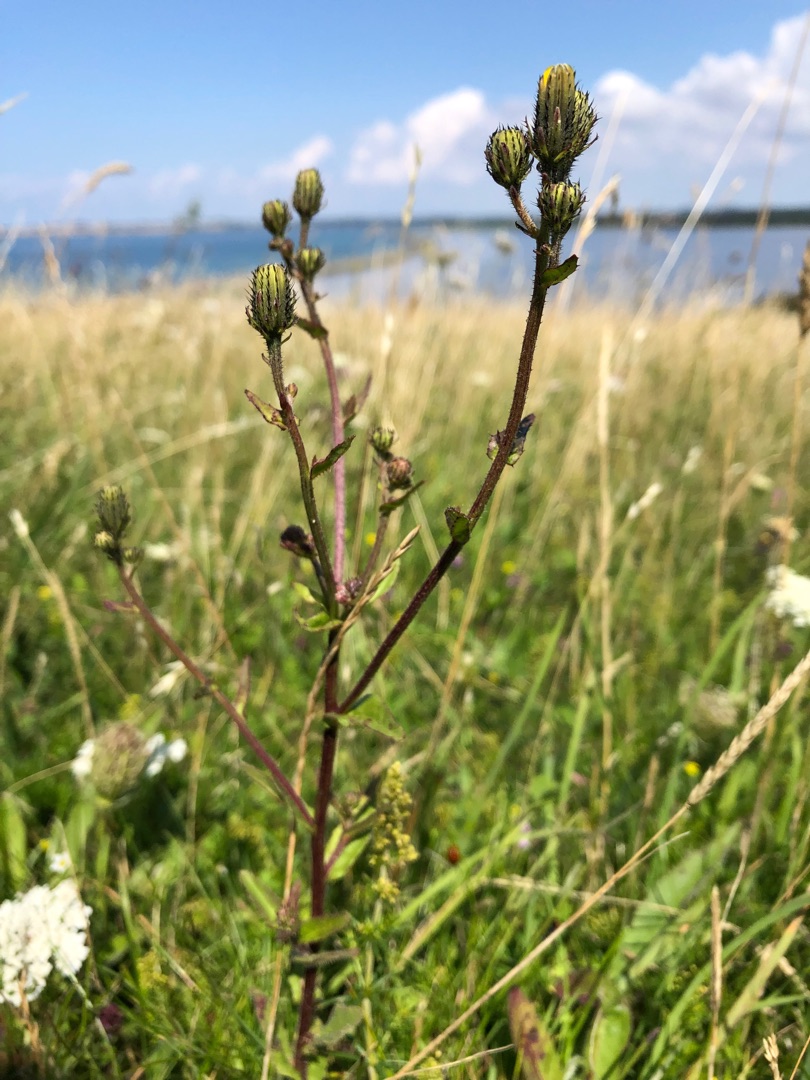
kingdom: Plantae
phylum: Tracheophyta
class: Magnoliopsida
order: Asterales
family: Asteraceae
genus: Picris
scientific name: Picris hieracioides
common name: Ru bittermælk
